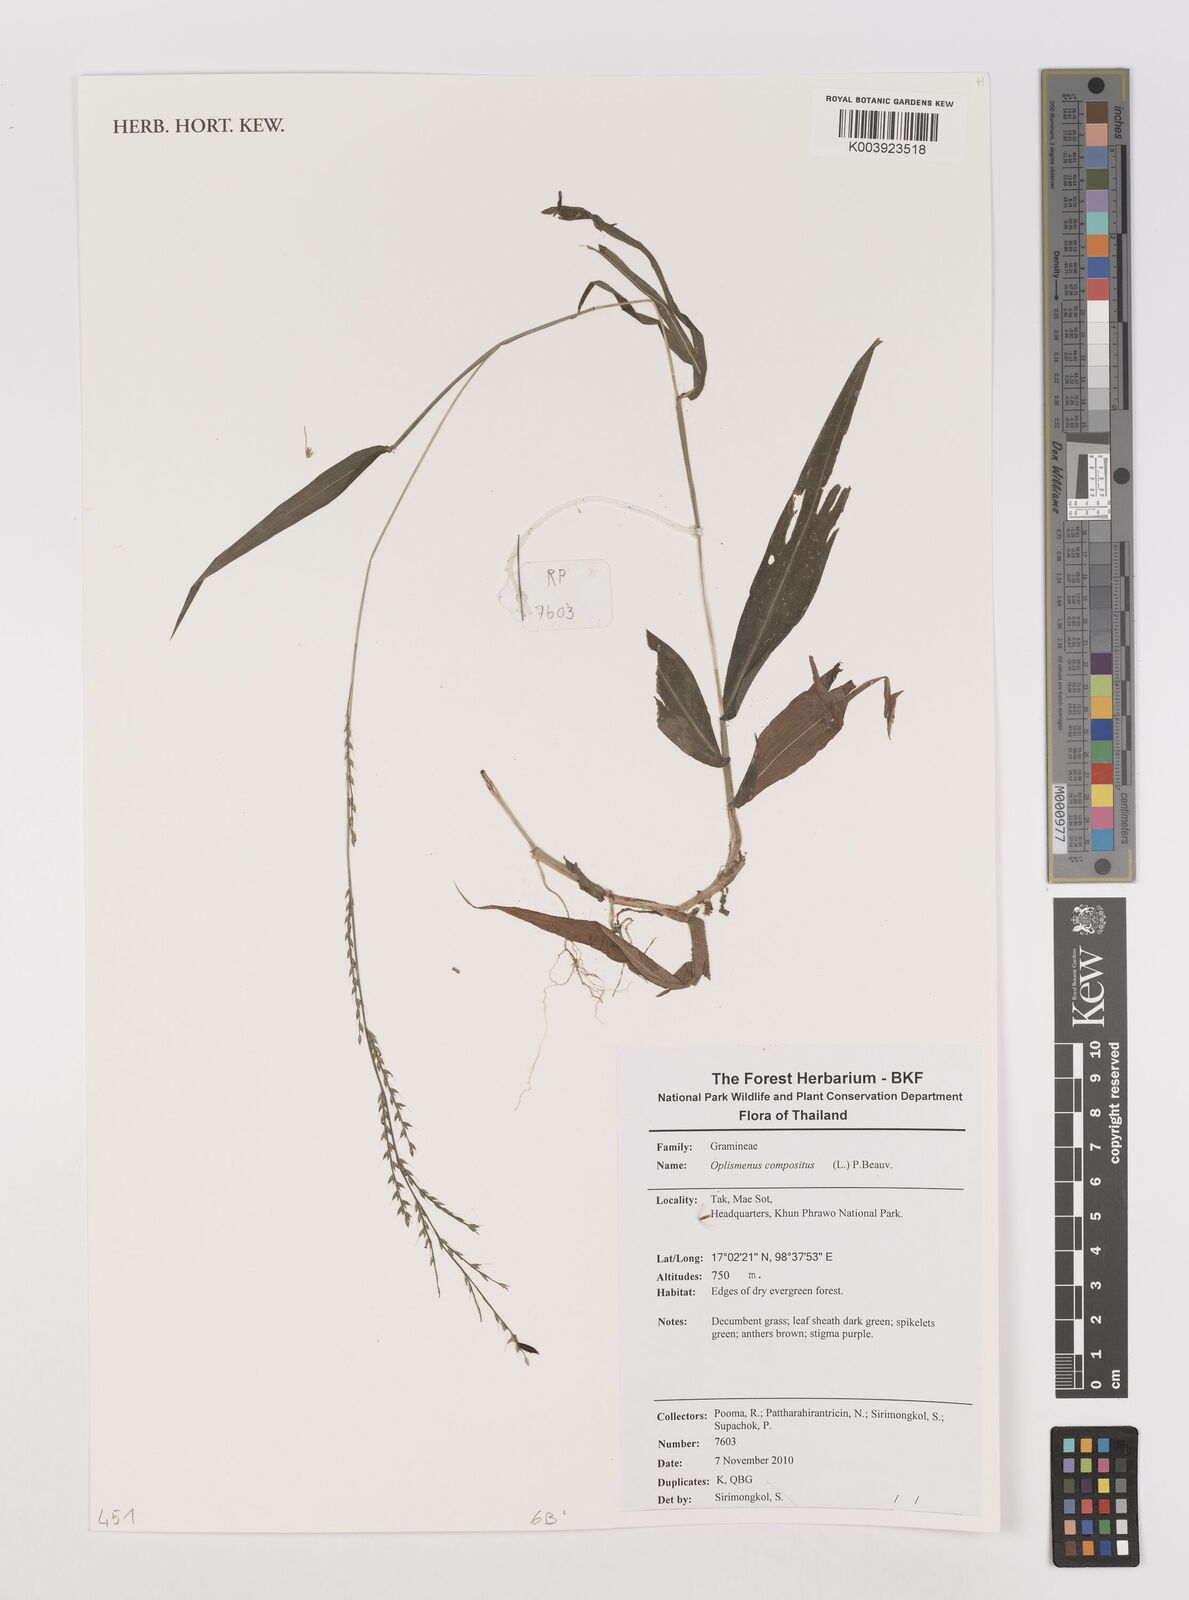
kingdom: Plantae
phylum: Tracheophyta
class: Liliopsida
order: Poales
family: Poaceae
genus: Oplismenus
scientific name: Oplismenus compositus
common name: Running mountain grass
